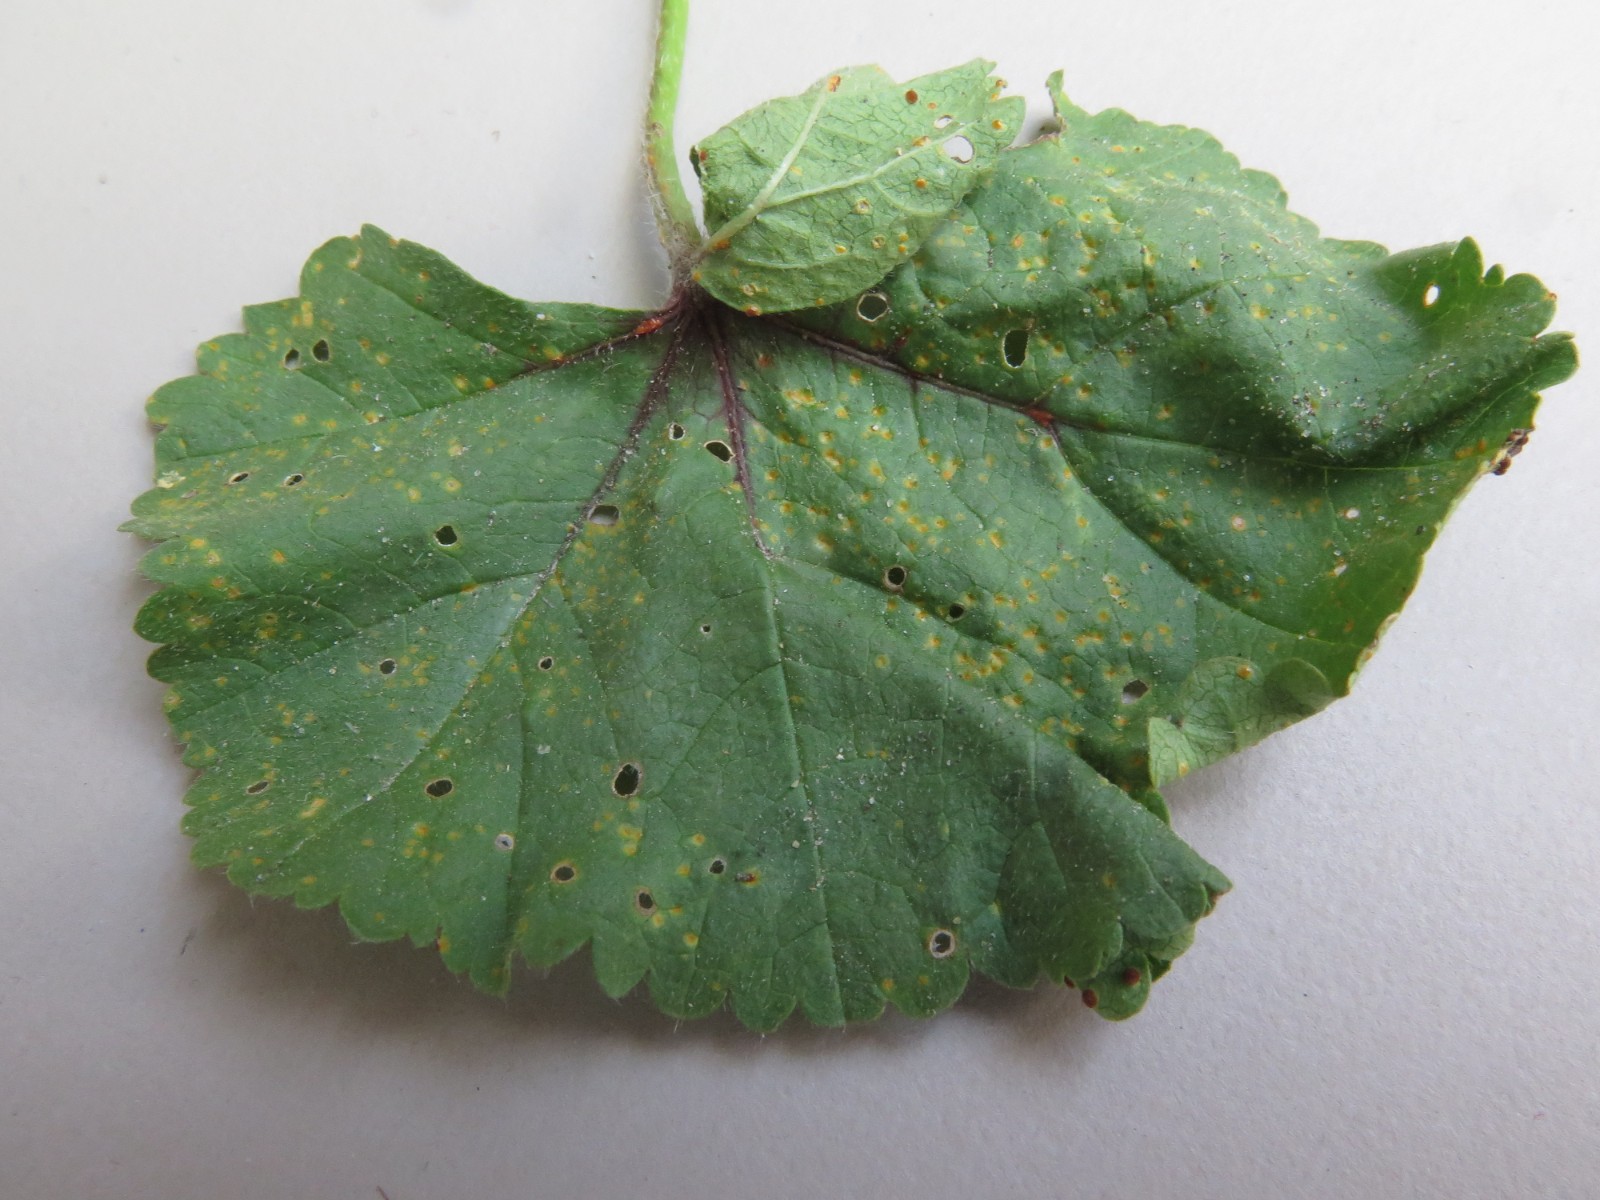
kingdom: Fungi
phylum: Basidiomycota
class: Pucciniomycetes
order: Pucciniales
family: Pucciniaceae
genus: Puccinia
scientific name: Puccinia malvacearum
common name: stokrose-tvecellerust
